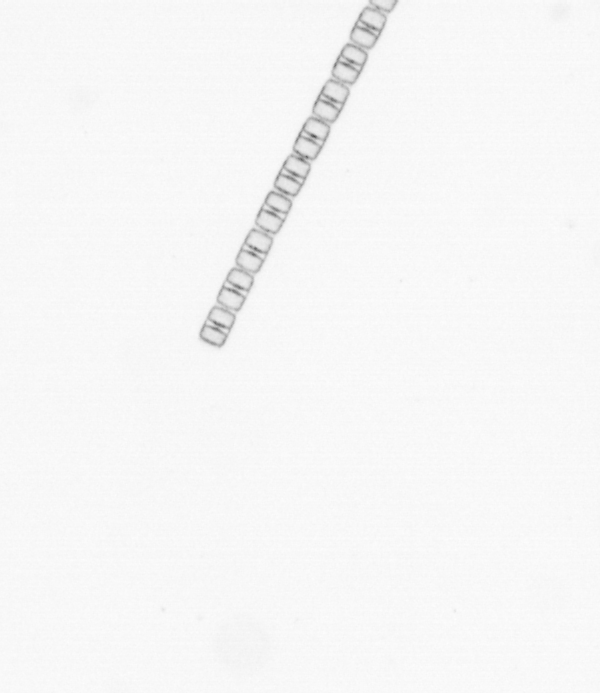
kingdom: Chromista
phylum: Ochrophyta
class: Bacillariophyceae
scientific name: Bacillariophyceae
